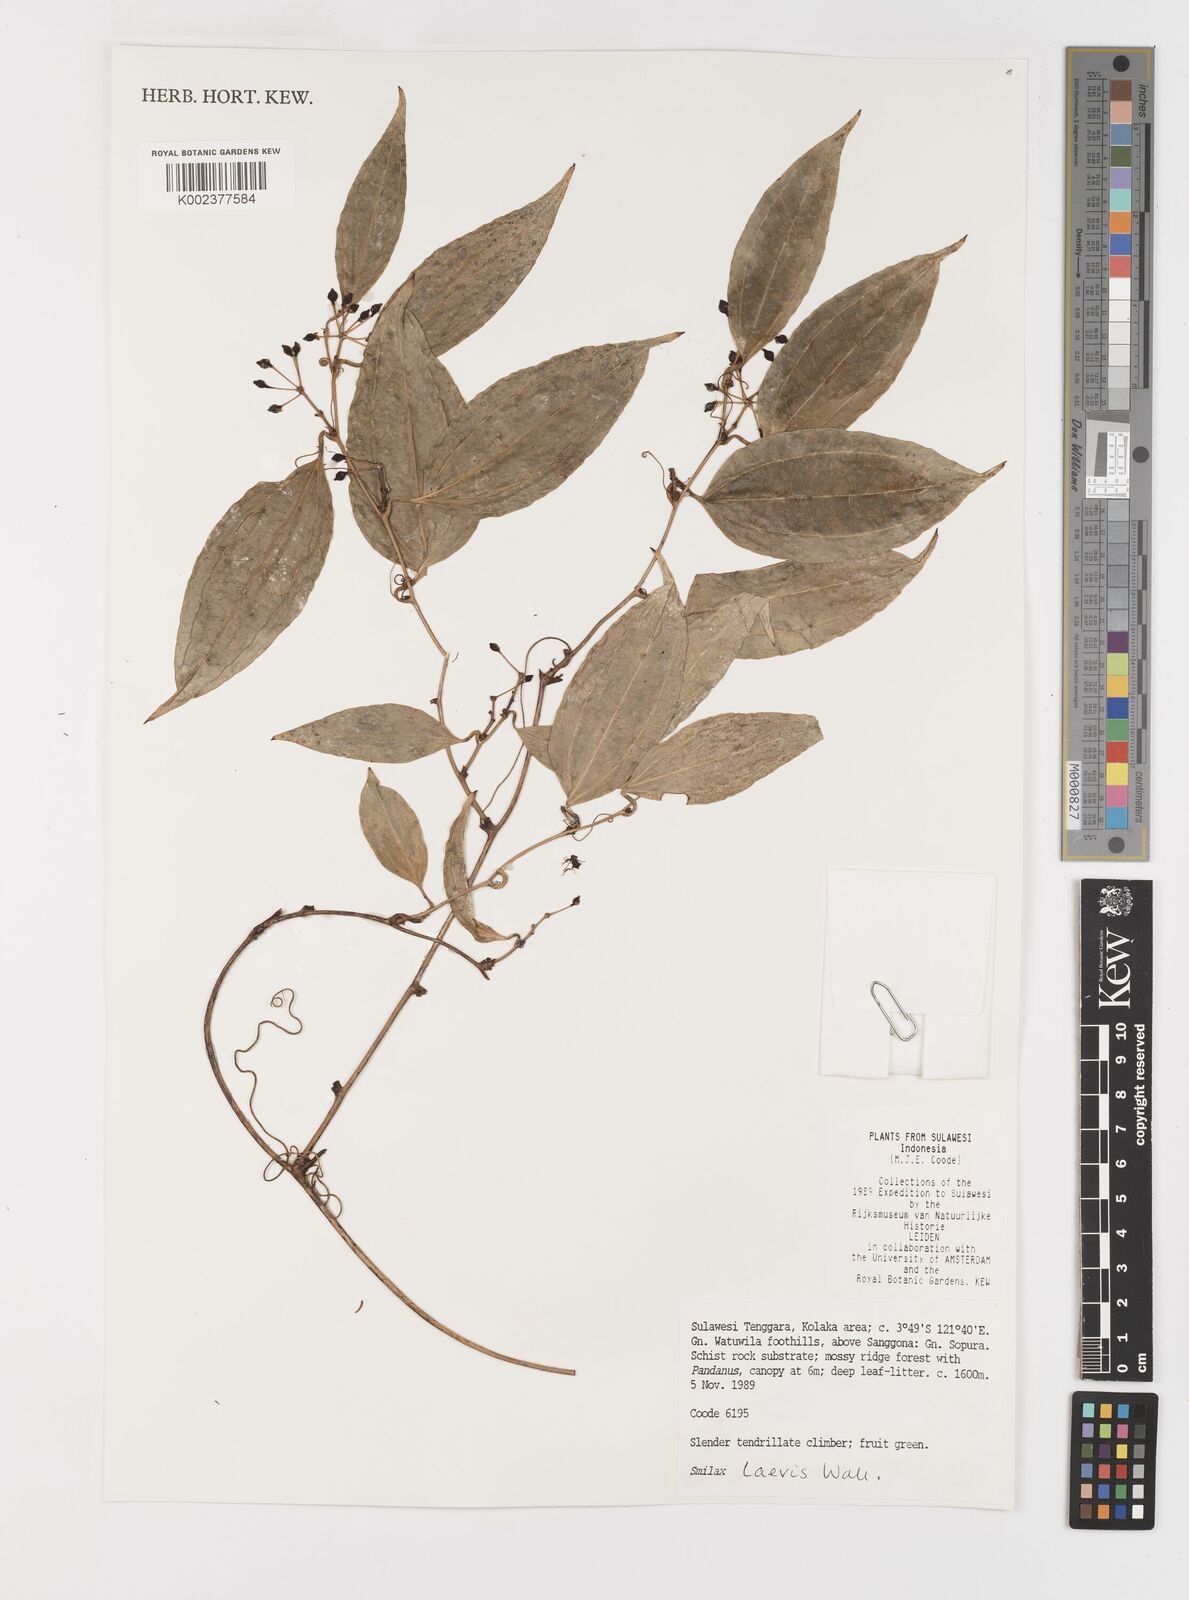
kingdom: Plantae
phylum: Tracheophyta
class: Liliopsida
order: Liliales
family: Smilacaceae
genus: Smilax
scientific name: Smilax laevis
